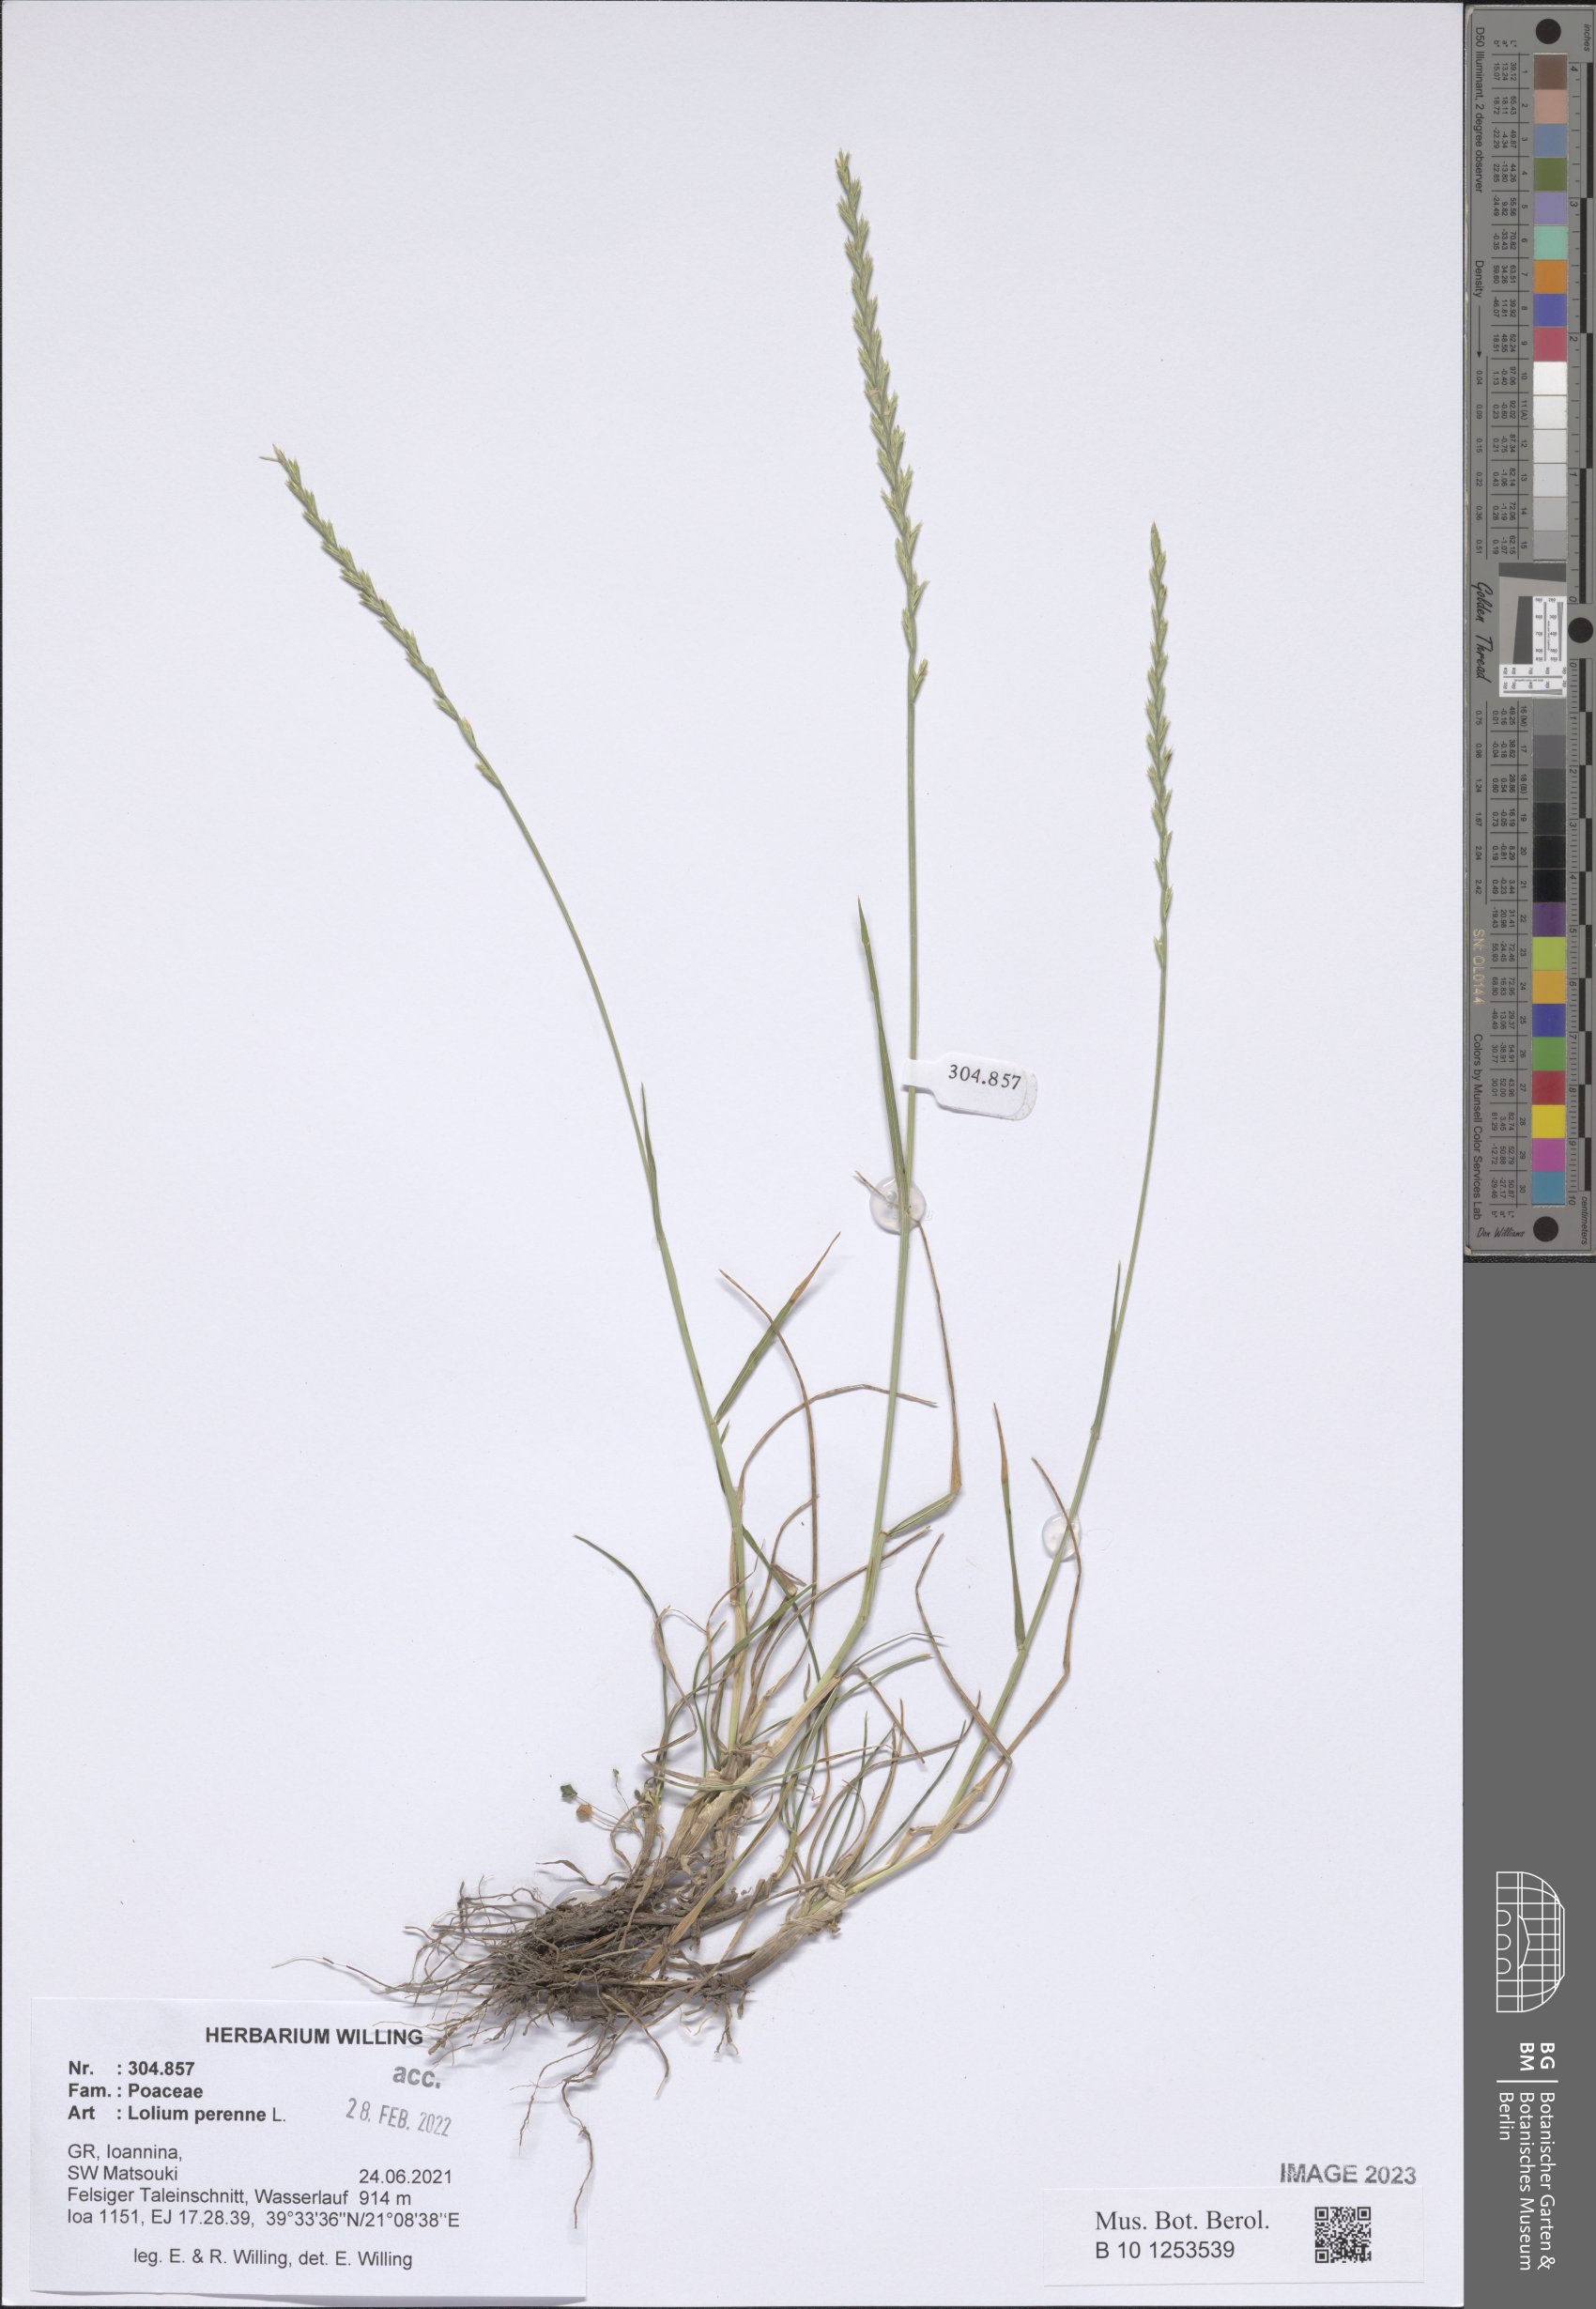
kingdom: Plantae
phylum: Tracheophyta
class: Liliopsida
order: Poales
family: Poaceae
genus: Lolium
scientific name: Lolium perenne
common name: Perennial ryegrass
